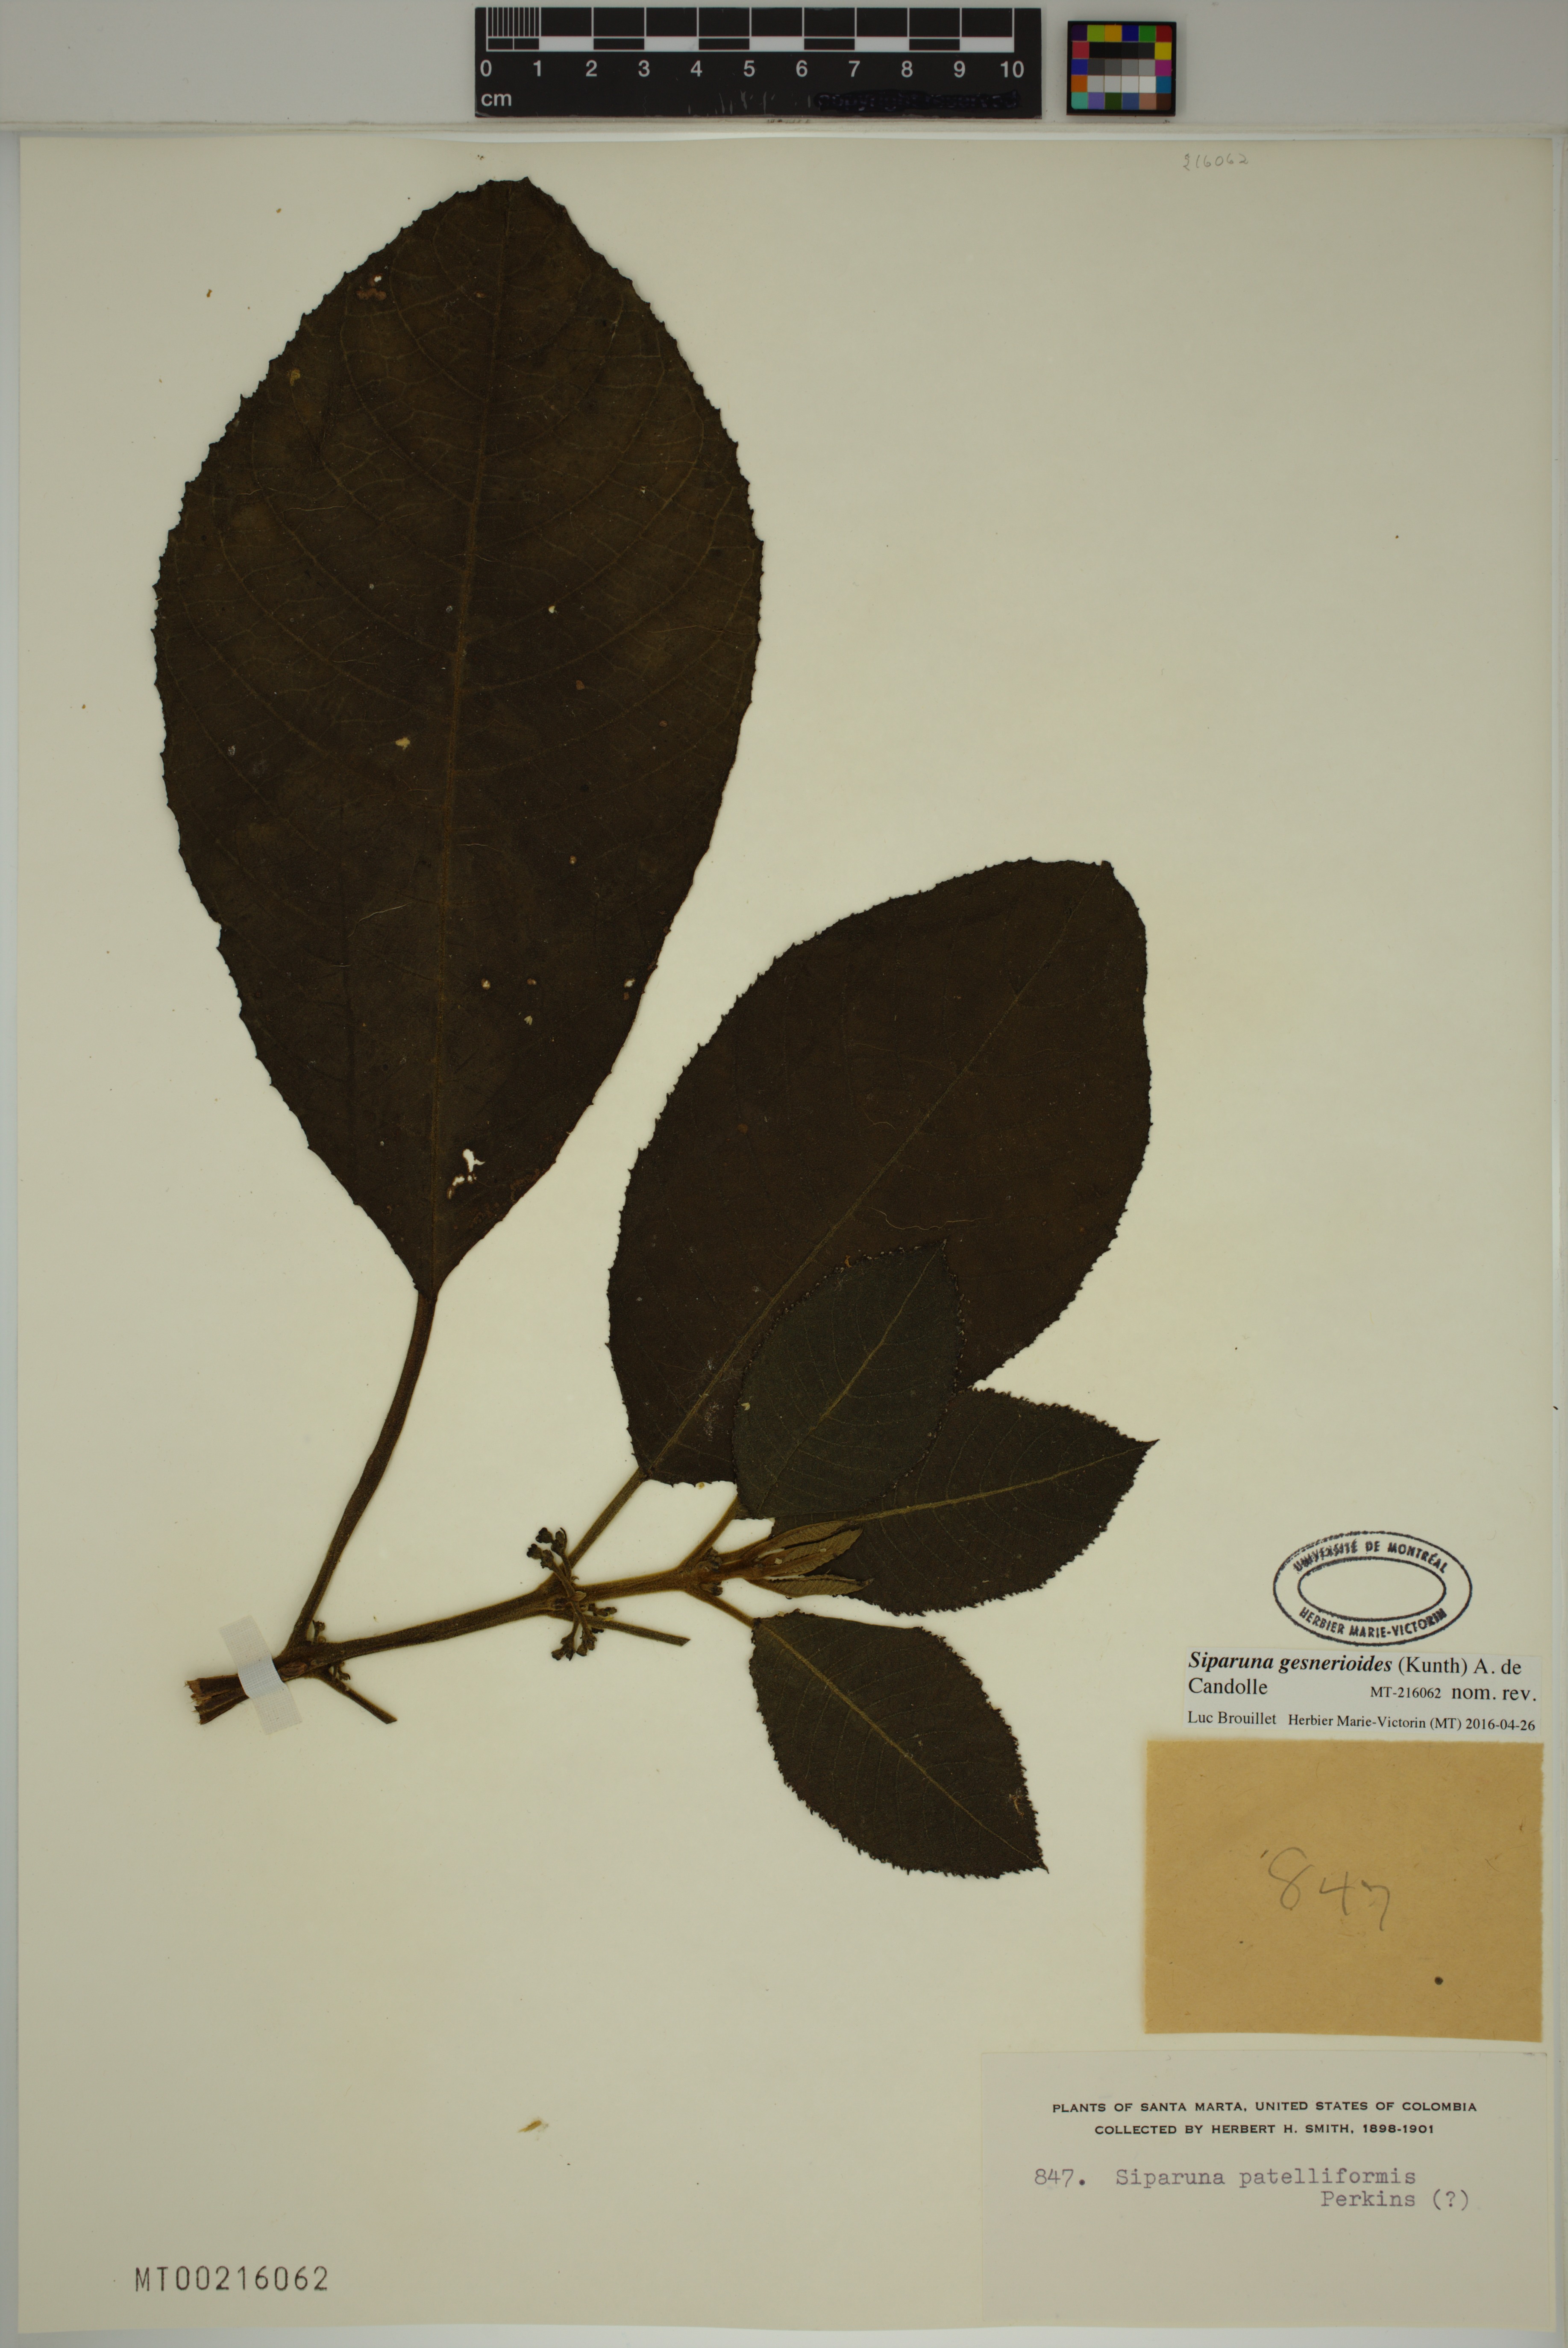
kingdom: Plantae
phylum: Tracheophyta
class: Magnoliopsida
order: Laurales
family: Siparunaceae
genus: Siparuna
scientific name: Siparuna gesnerioides
